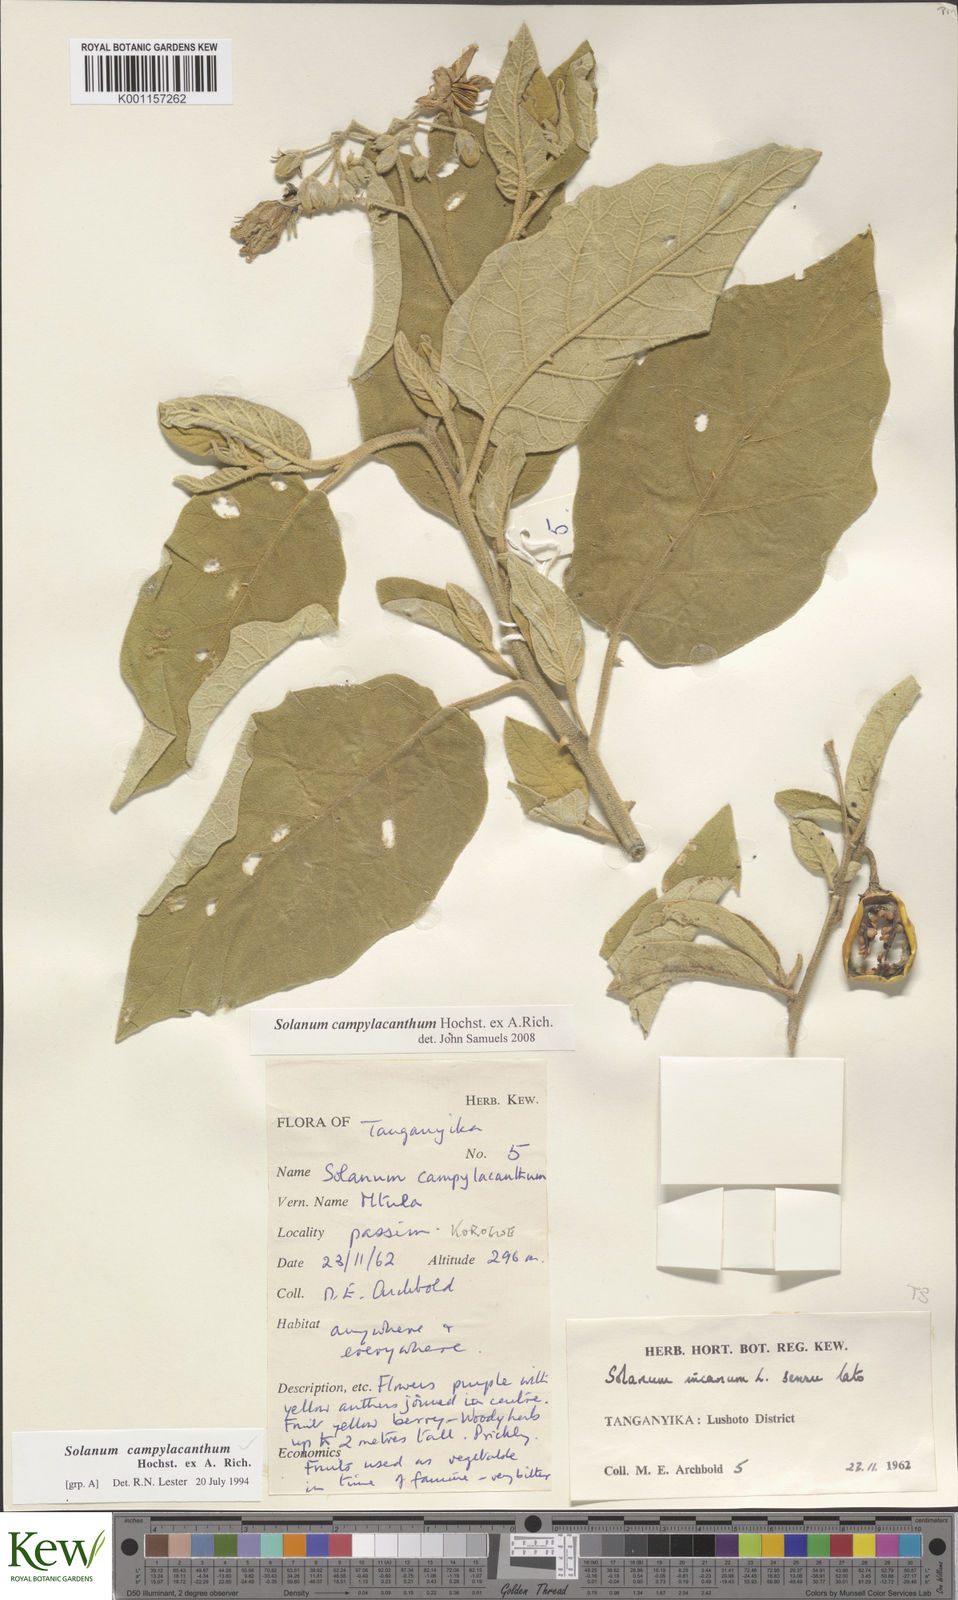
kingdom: Plantae
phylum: Tracheophyta
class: Magnoliopsida
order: Solanales
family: Solanaceae
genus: Solanum
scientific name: Solanum campylacanthum
